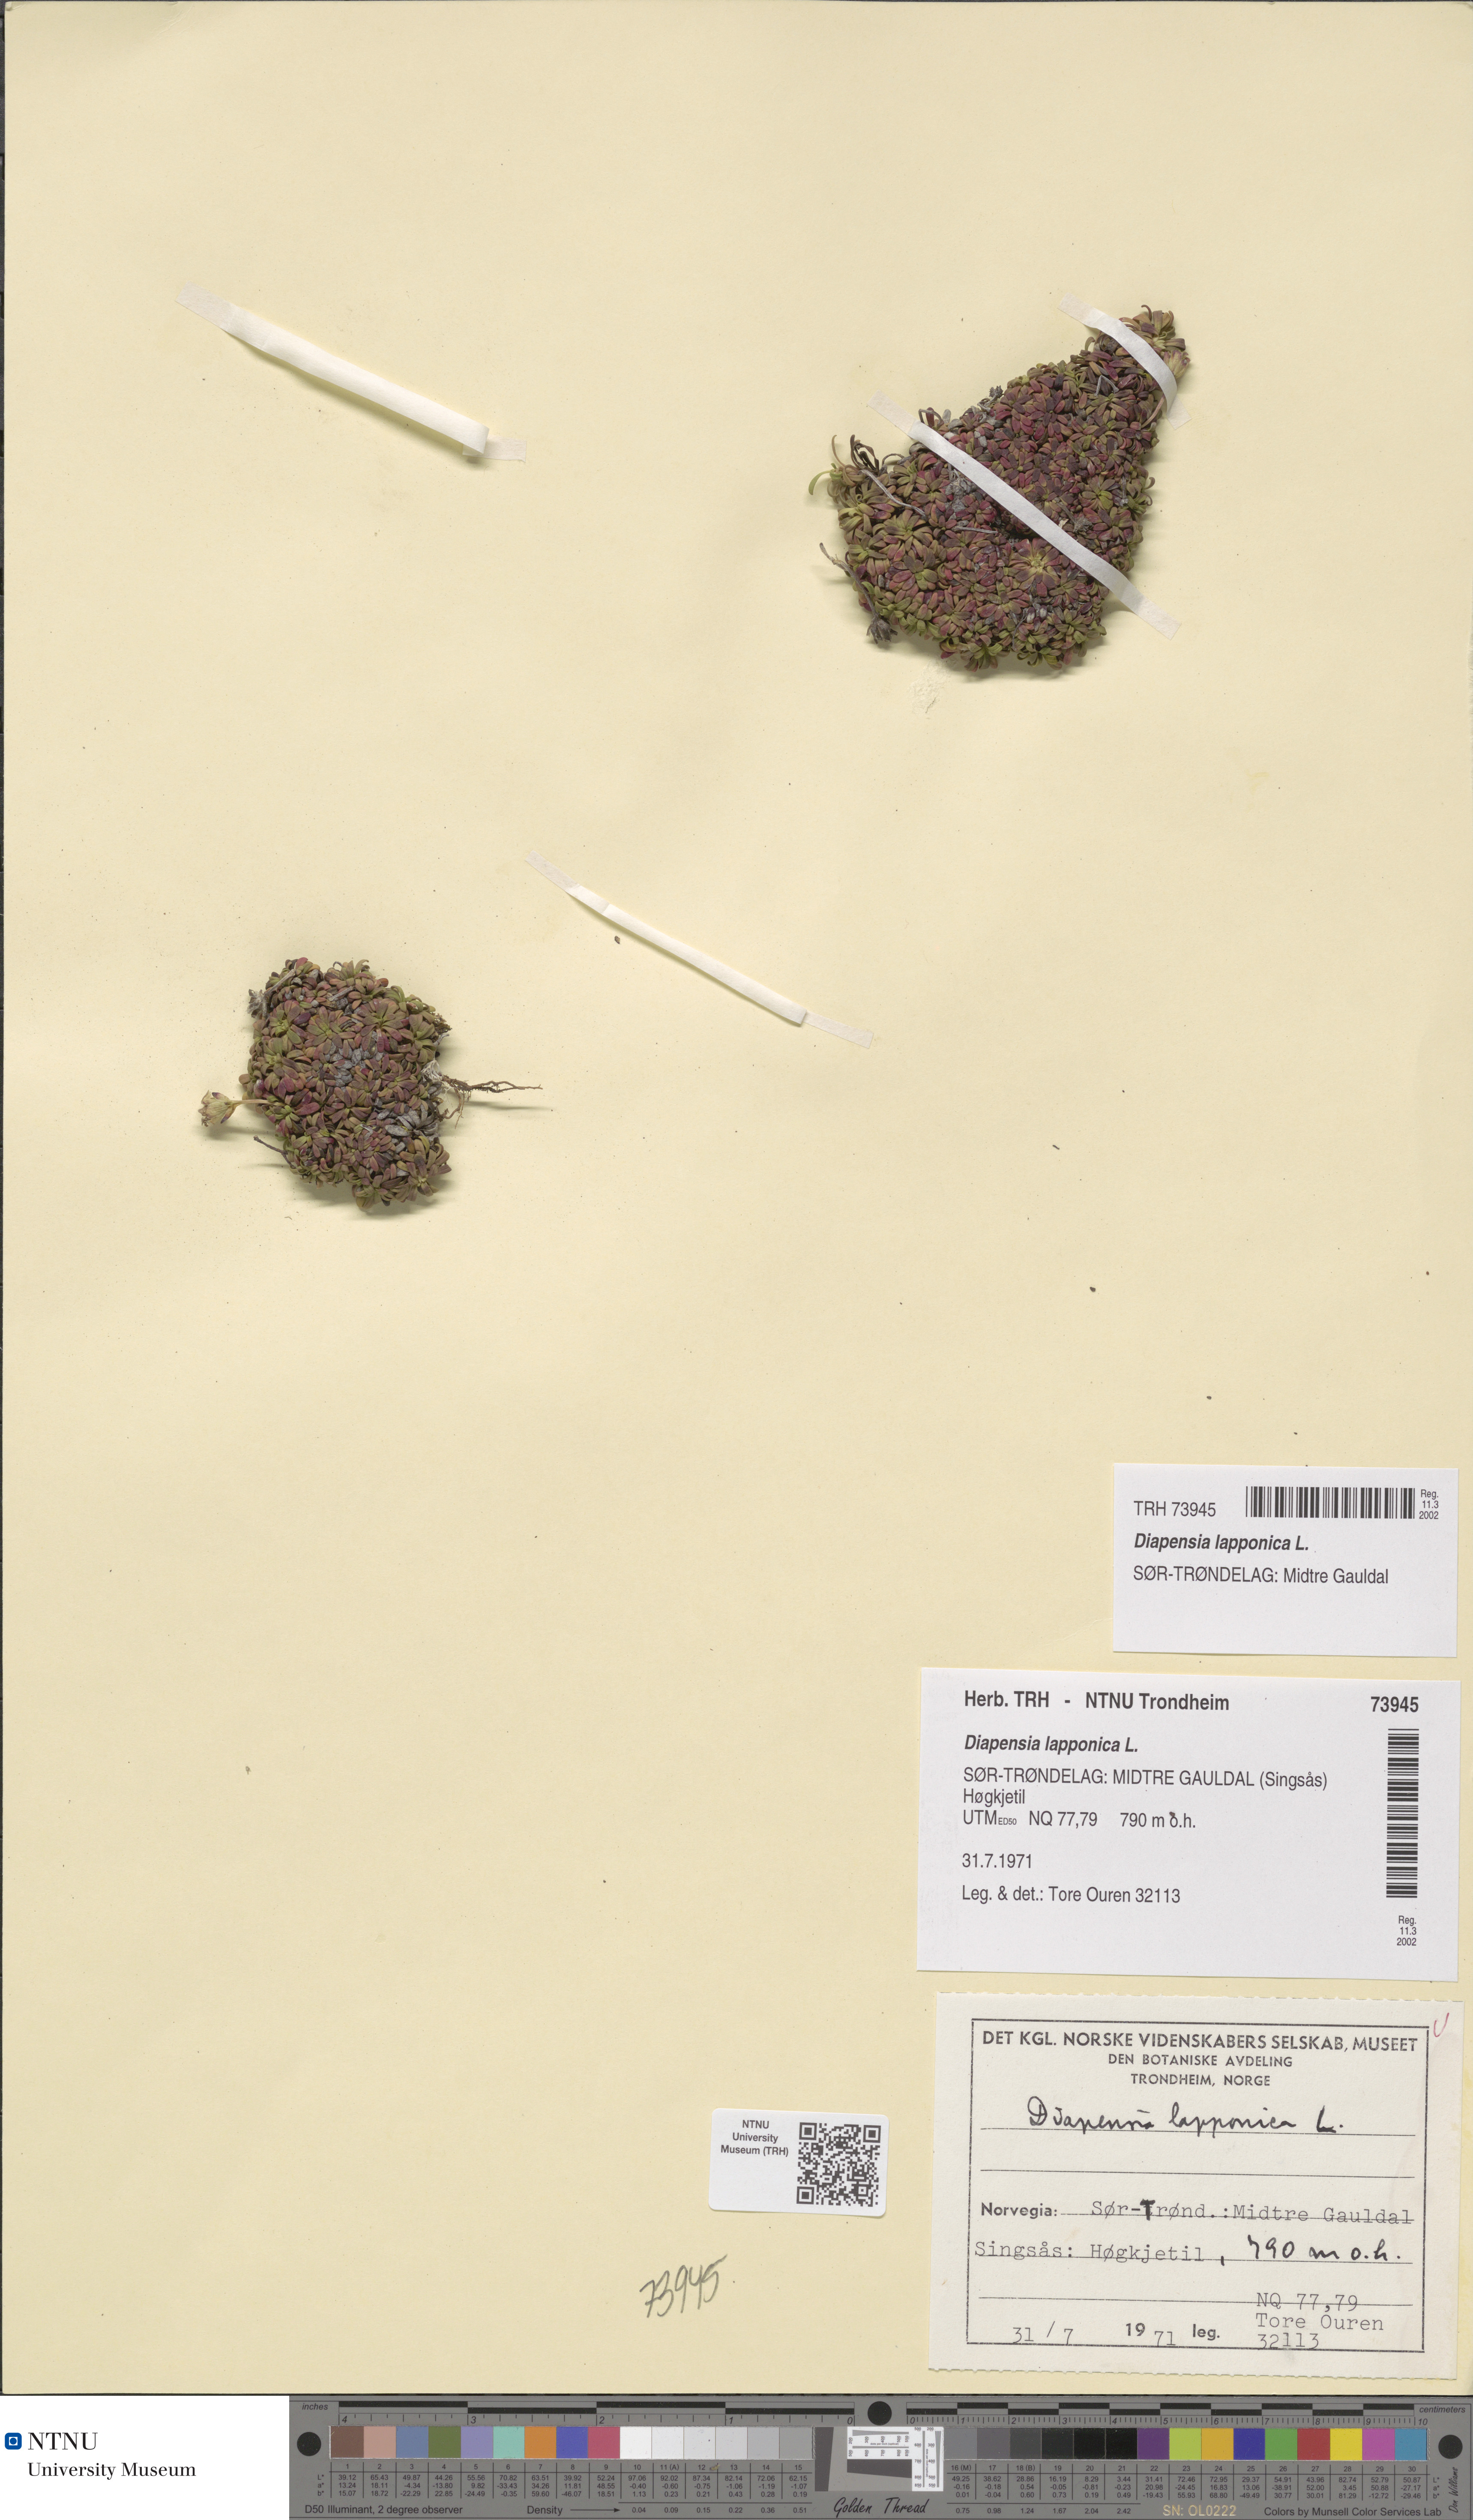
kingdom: Plantae
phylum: Tracheophyta
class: Magnoliopsida
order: Ericales
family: Diapensiaceae
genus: Diapensia
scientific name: Diapensia lapponica
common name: Diapensia
